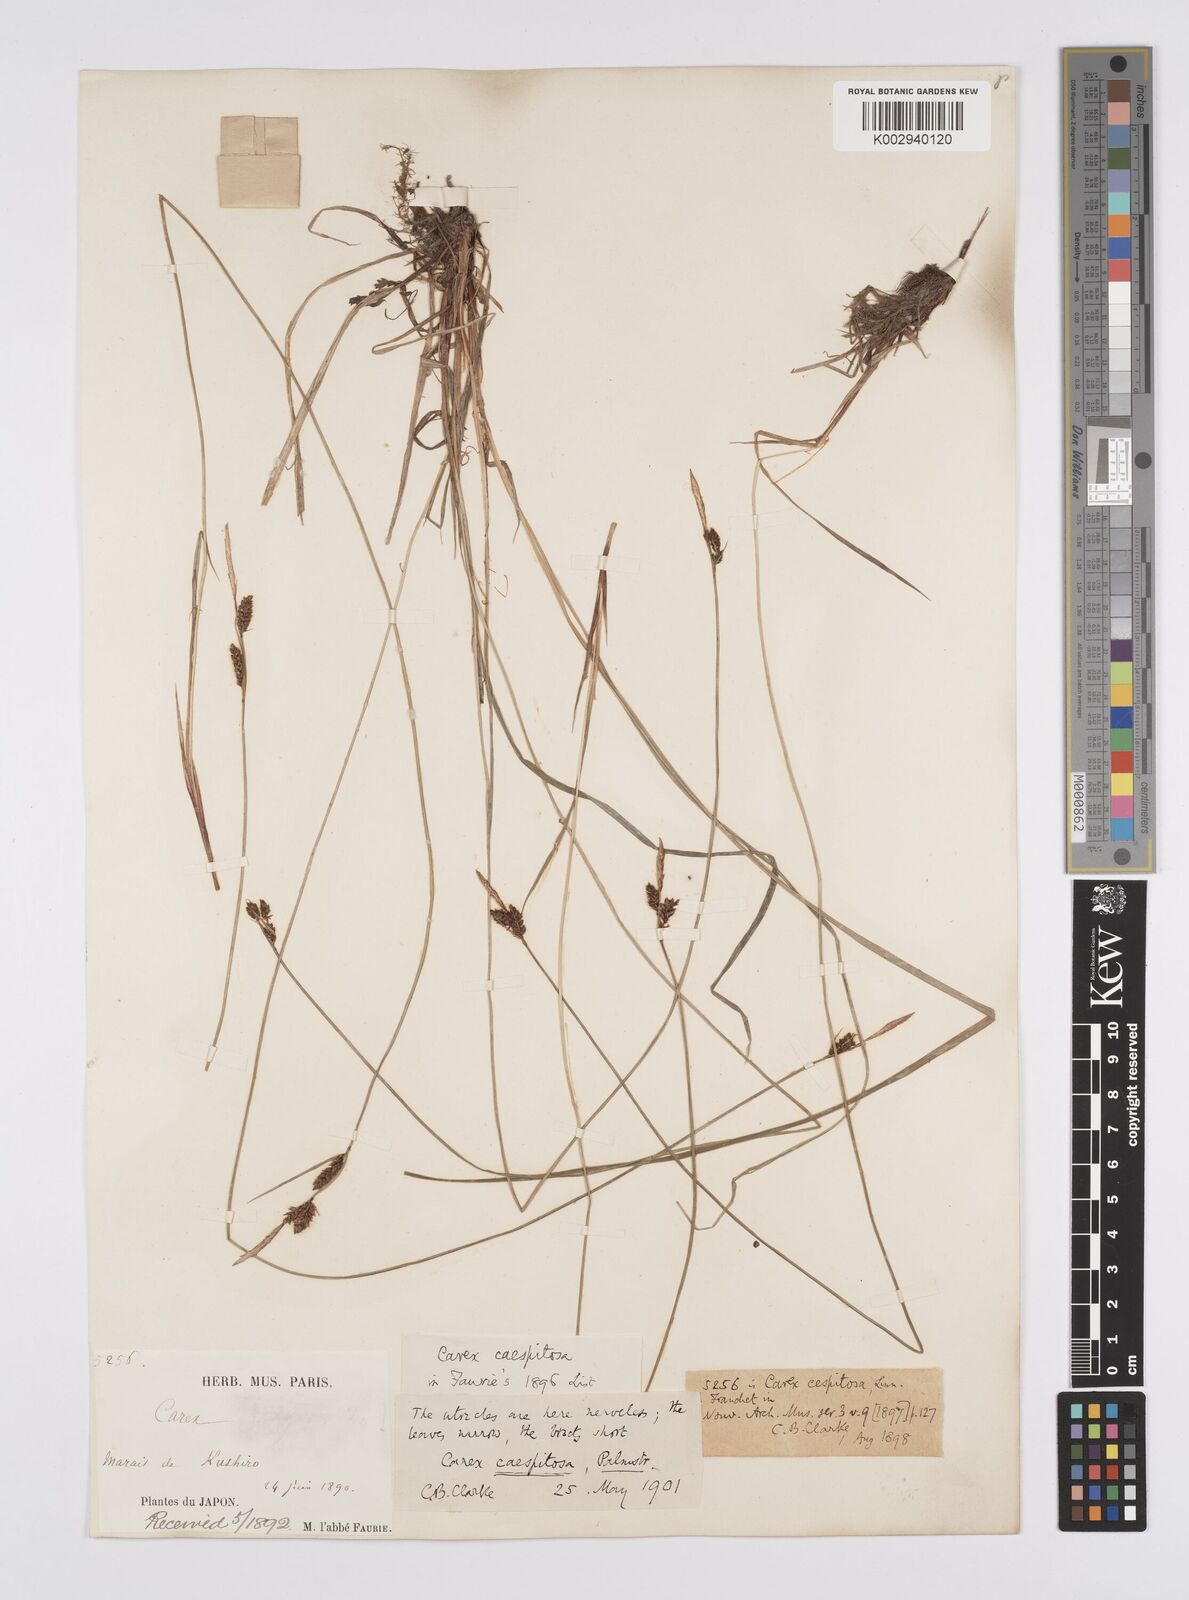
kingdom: Plantae
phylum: Tracheophyta
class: Liliopsida
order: Poales
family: Cyperaceae
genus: Carex
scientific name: Carex cespitosa
